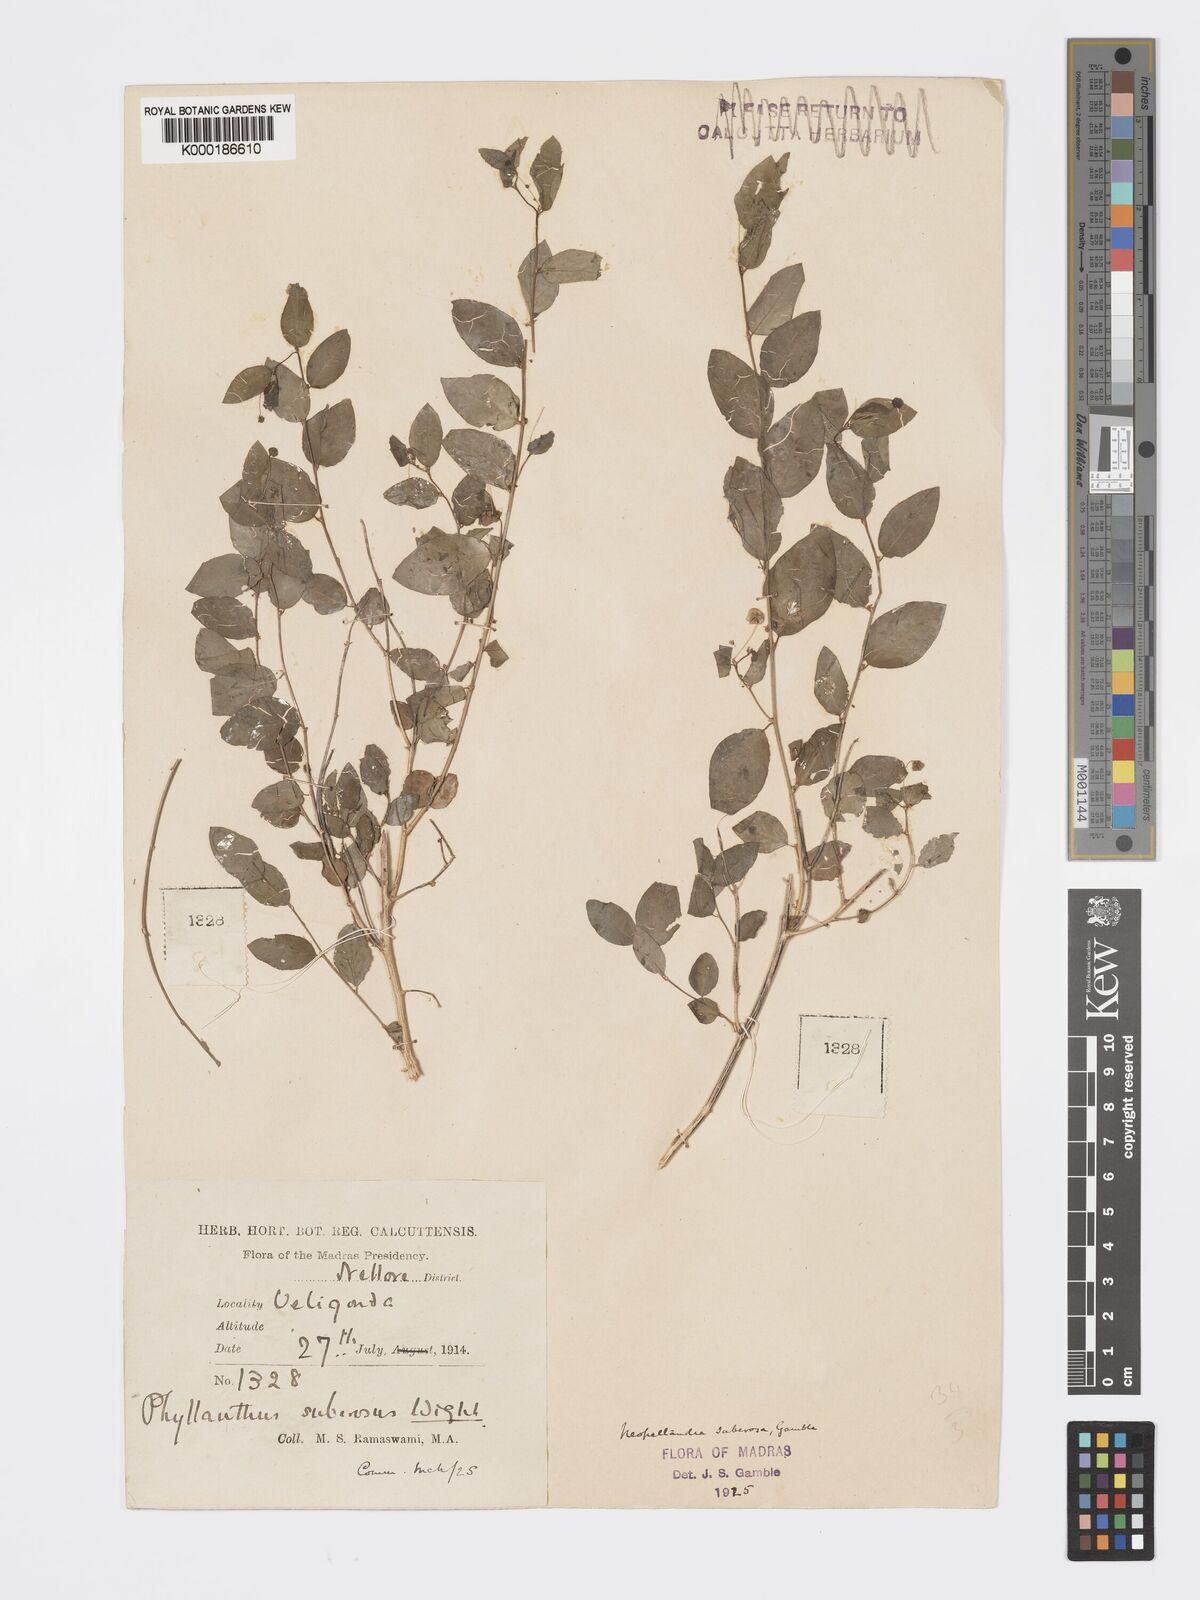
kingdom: Plantae
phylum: Tracheophyta
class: Magnoliopsida
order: Malpighiales
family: Phyllanthaceae
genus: Meineckia
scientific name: Meineckia parvifolia
